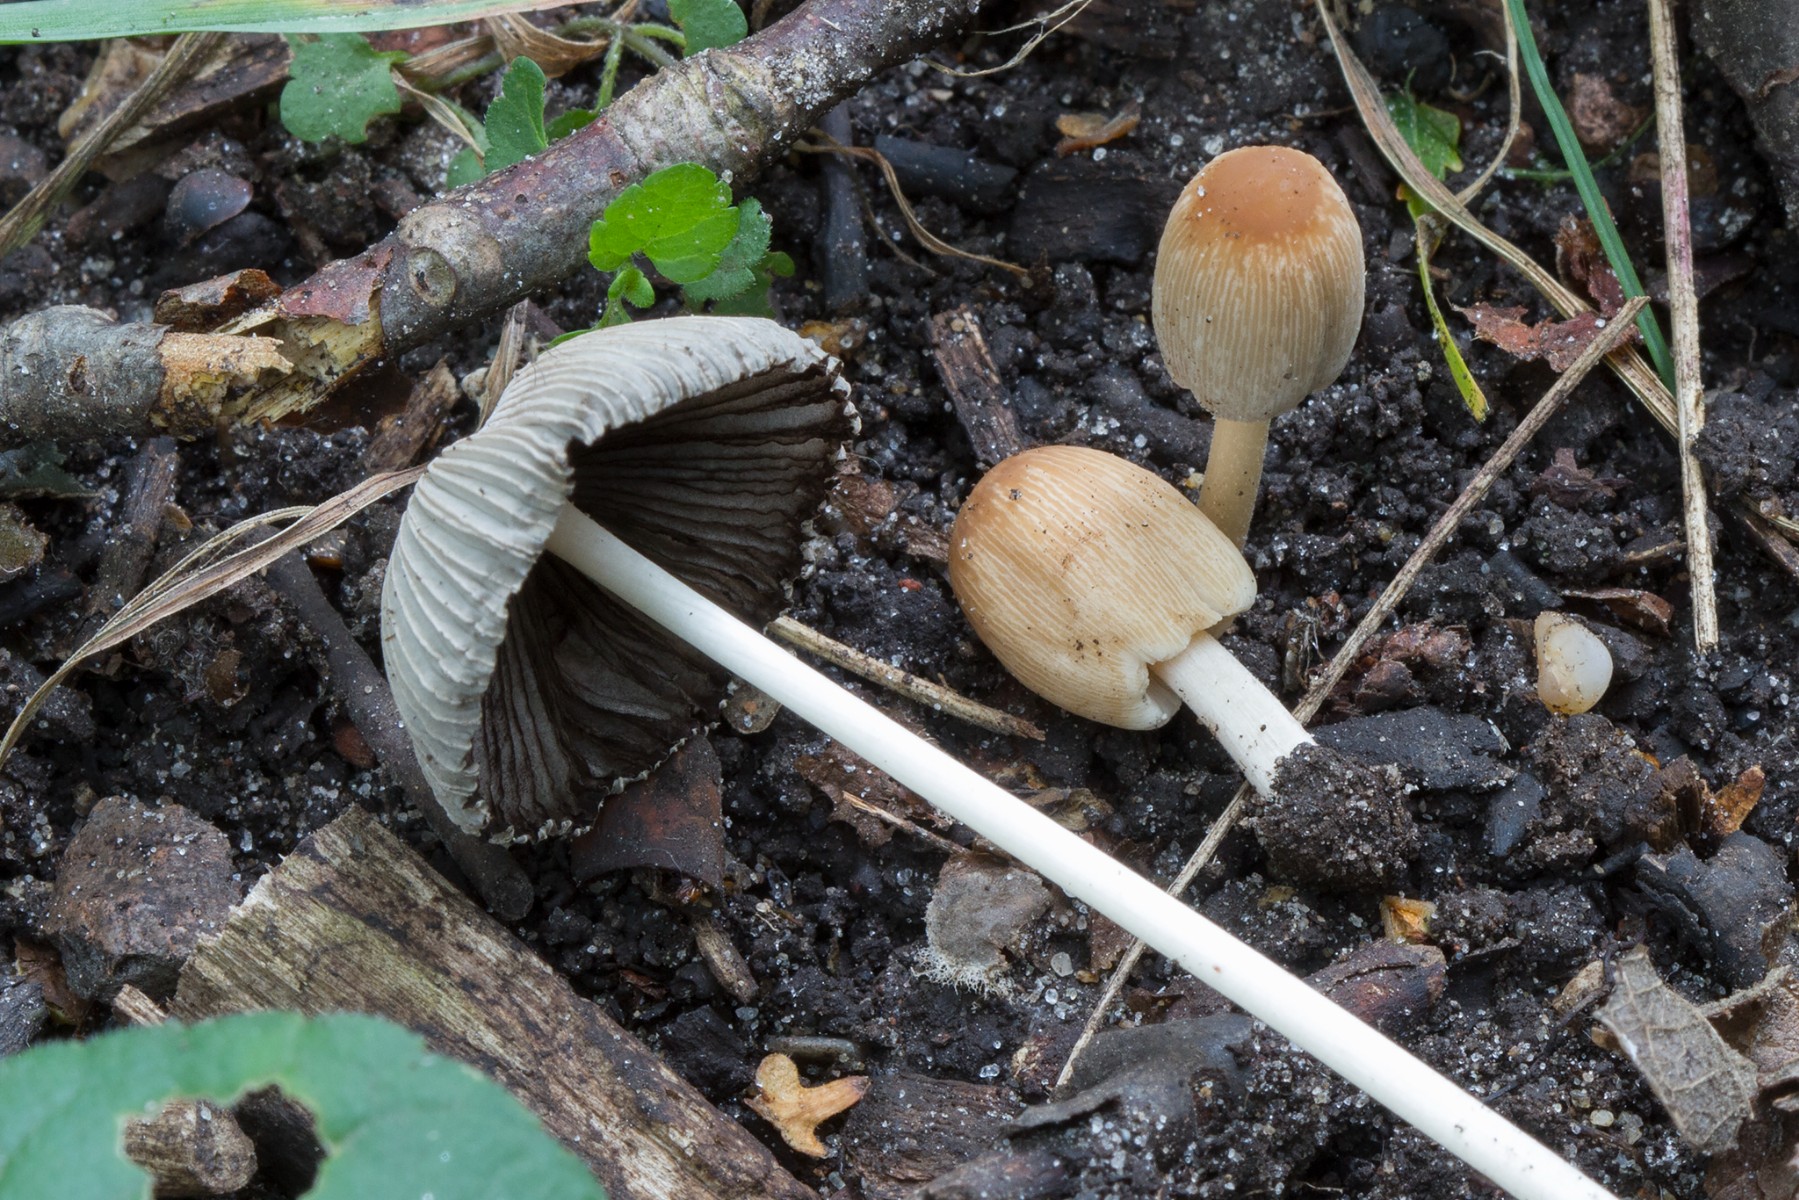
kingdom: Fungi
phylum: Basidiomycota
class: Agaricomycetes
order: Agaricales
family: Psathyrellaceae
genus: Parasola
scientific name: Parasola kuehneri
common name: skygge-hjulhat
